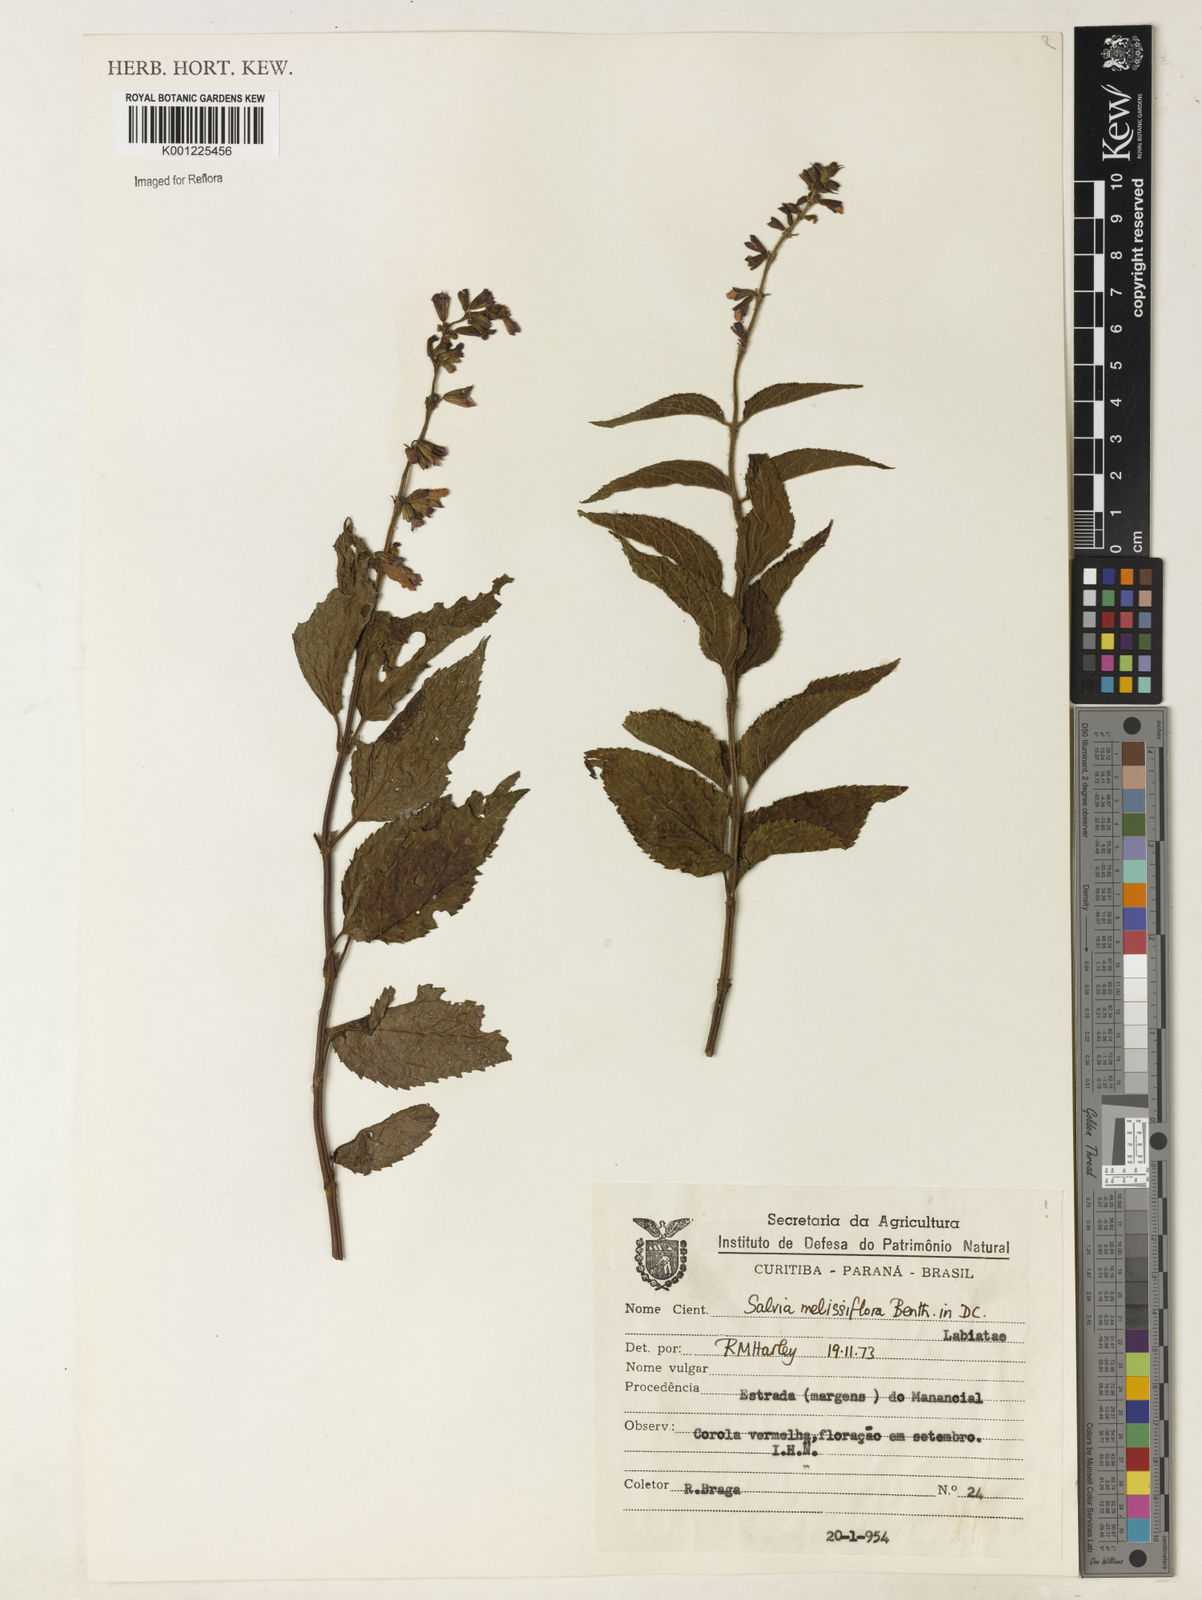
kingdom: Plantae
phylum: Tracheophyta
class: Magnoliopsida
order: Lamiales
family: Lamiaceae
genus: Salvia
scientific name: Salvia melissiflora
